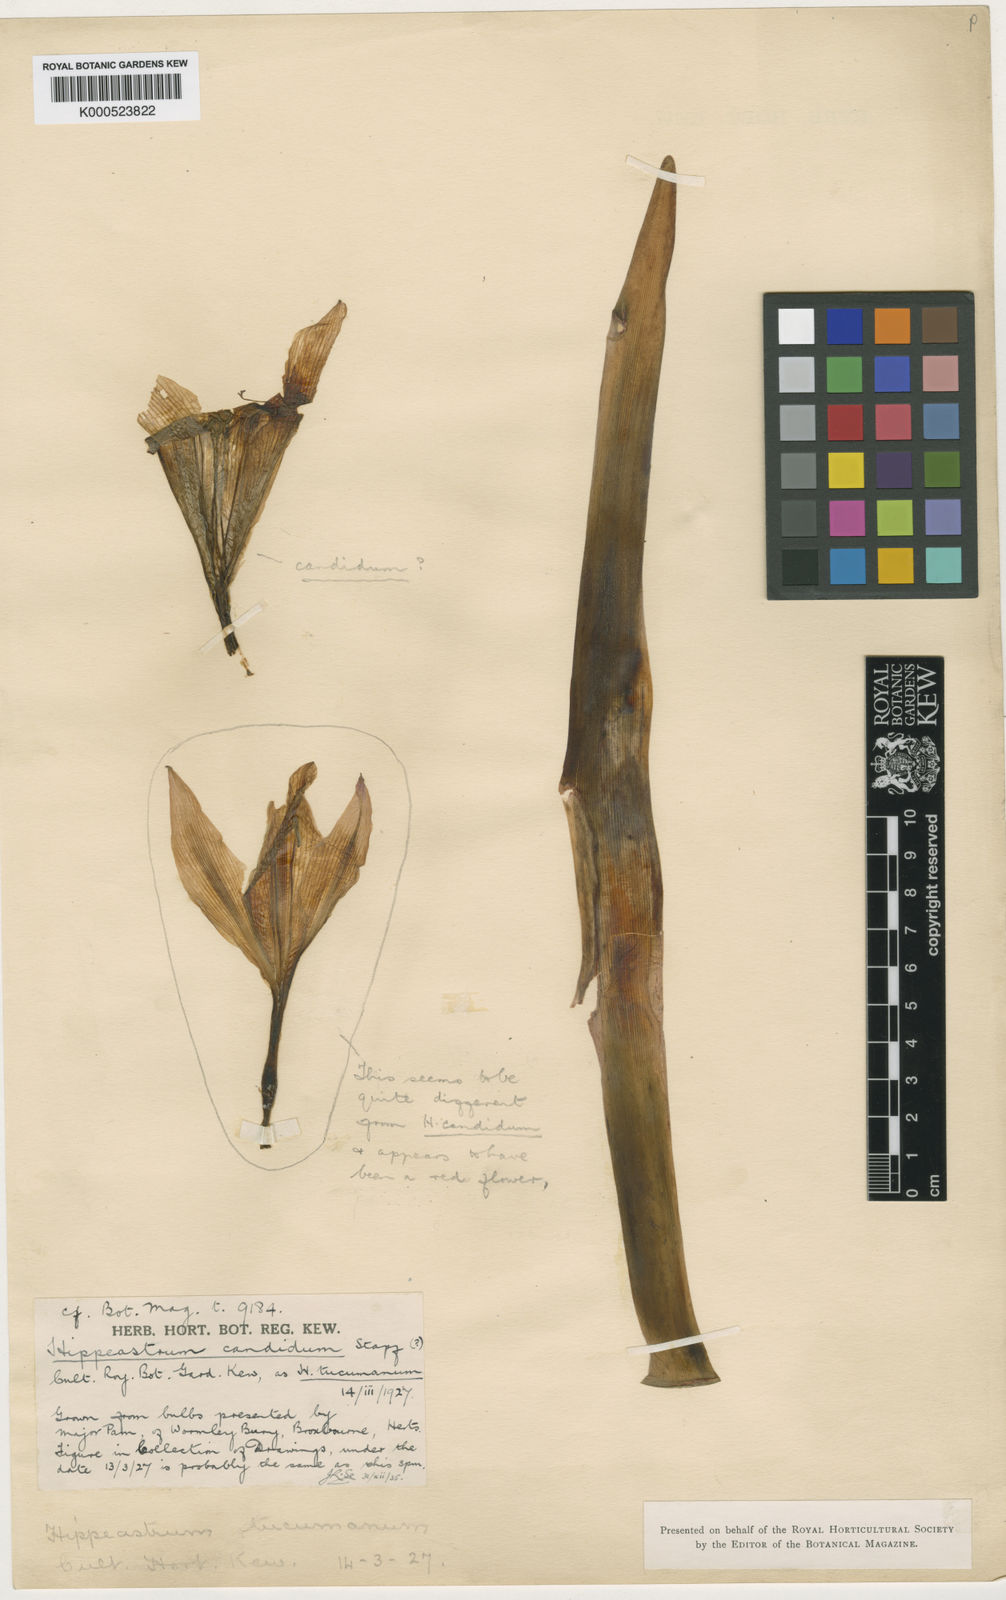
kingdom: Plantae
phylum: Tracheophyta
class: Liliopsida
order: Asparagales
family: Amaryllidaceae
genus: Hippeastrum
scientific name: Hippeastrum argentinum
